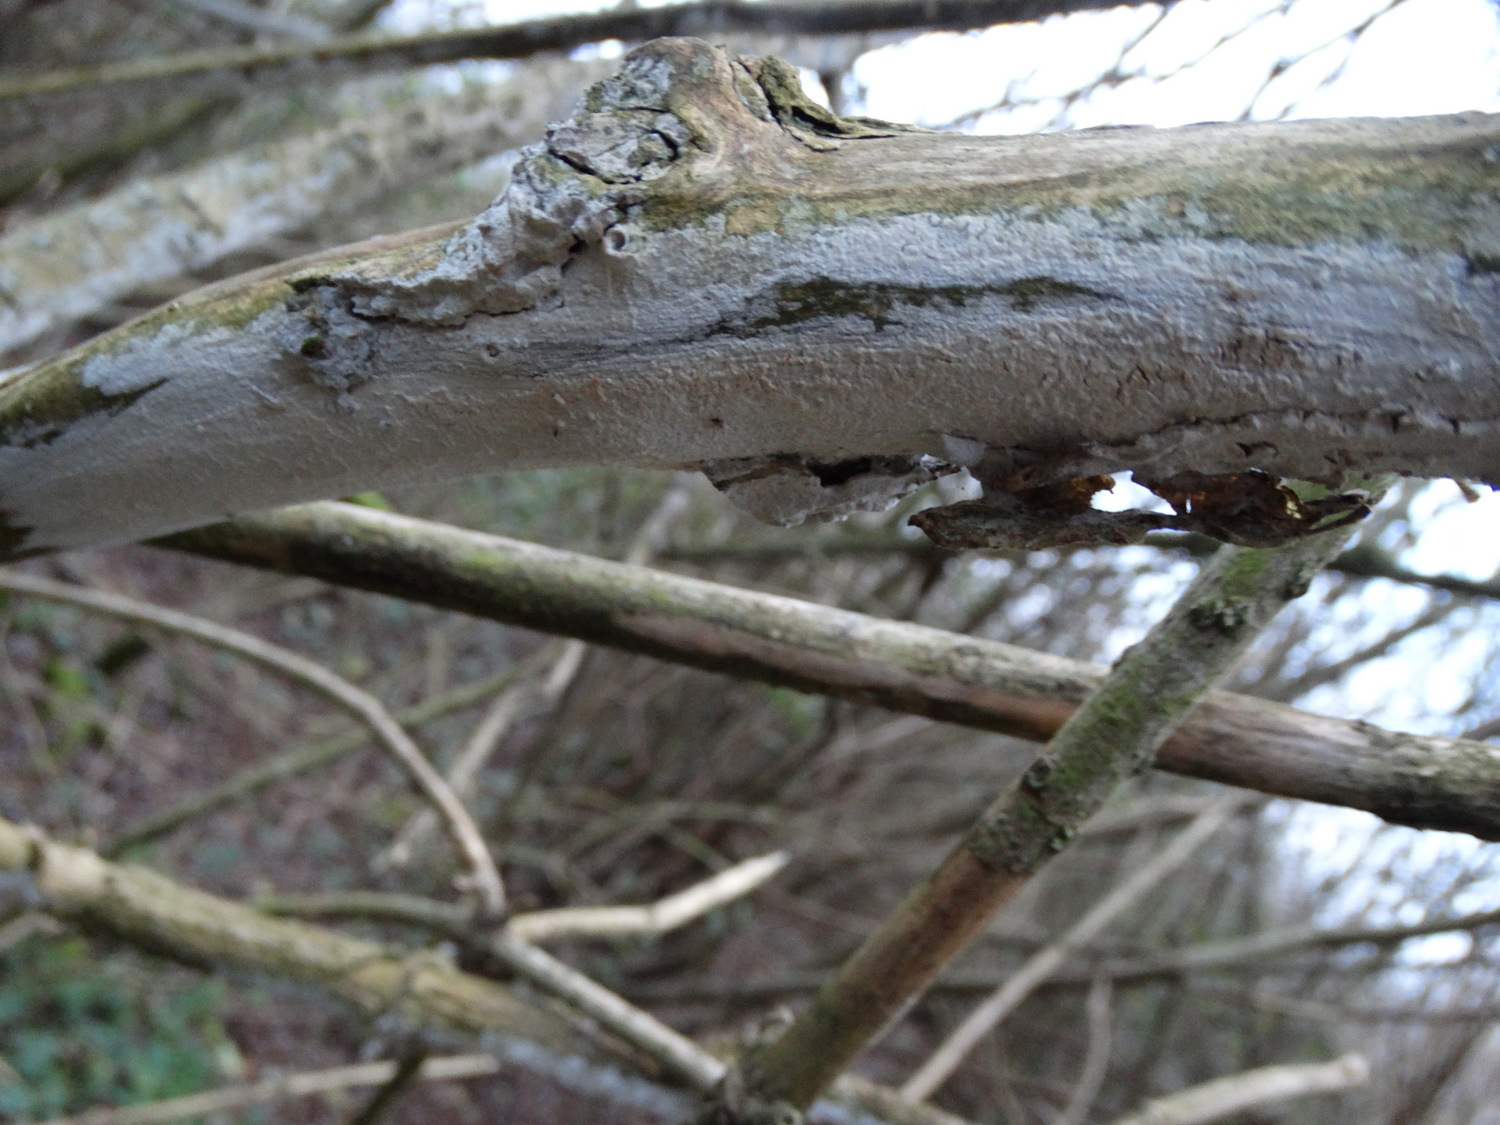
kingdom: Fungi
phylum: Basidiomycota
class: Agaricomycetes
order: Corticiales
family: Corticiaceae
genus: Lyomyces
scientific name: Lyomyces sambuci
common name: almindelig hyldehinde
